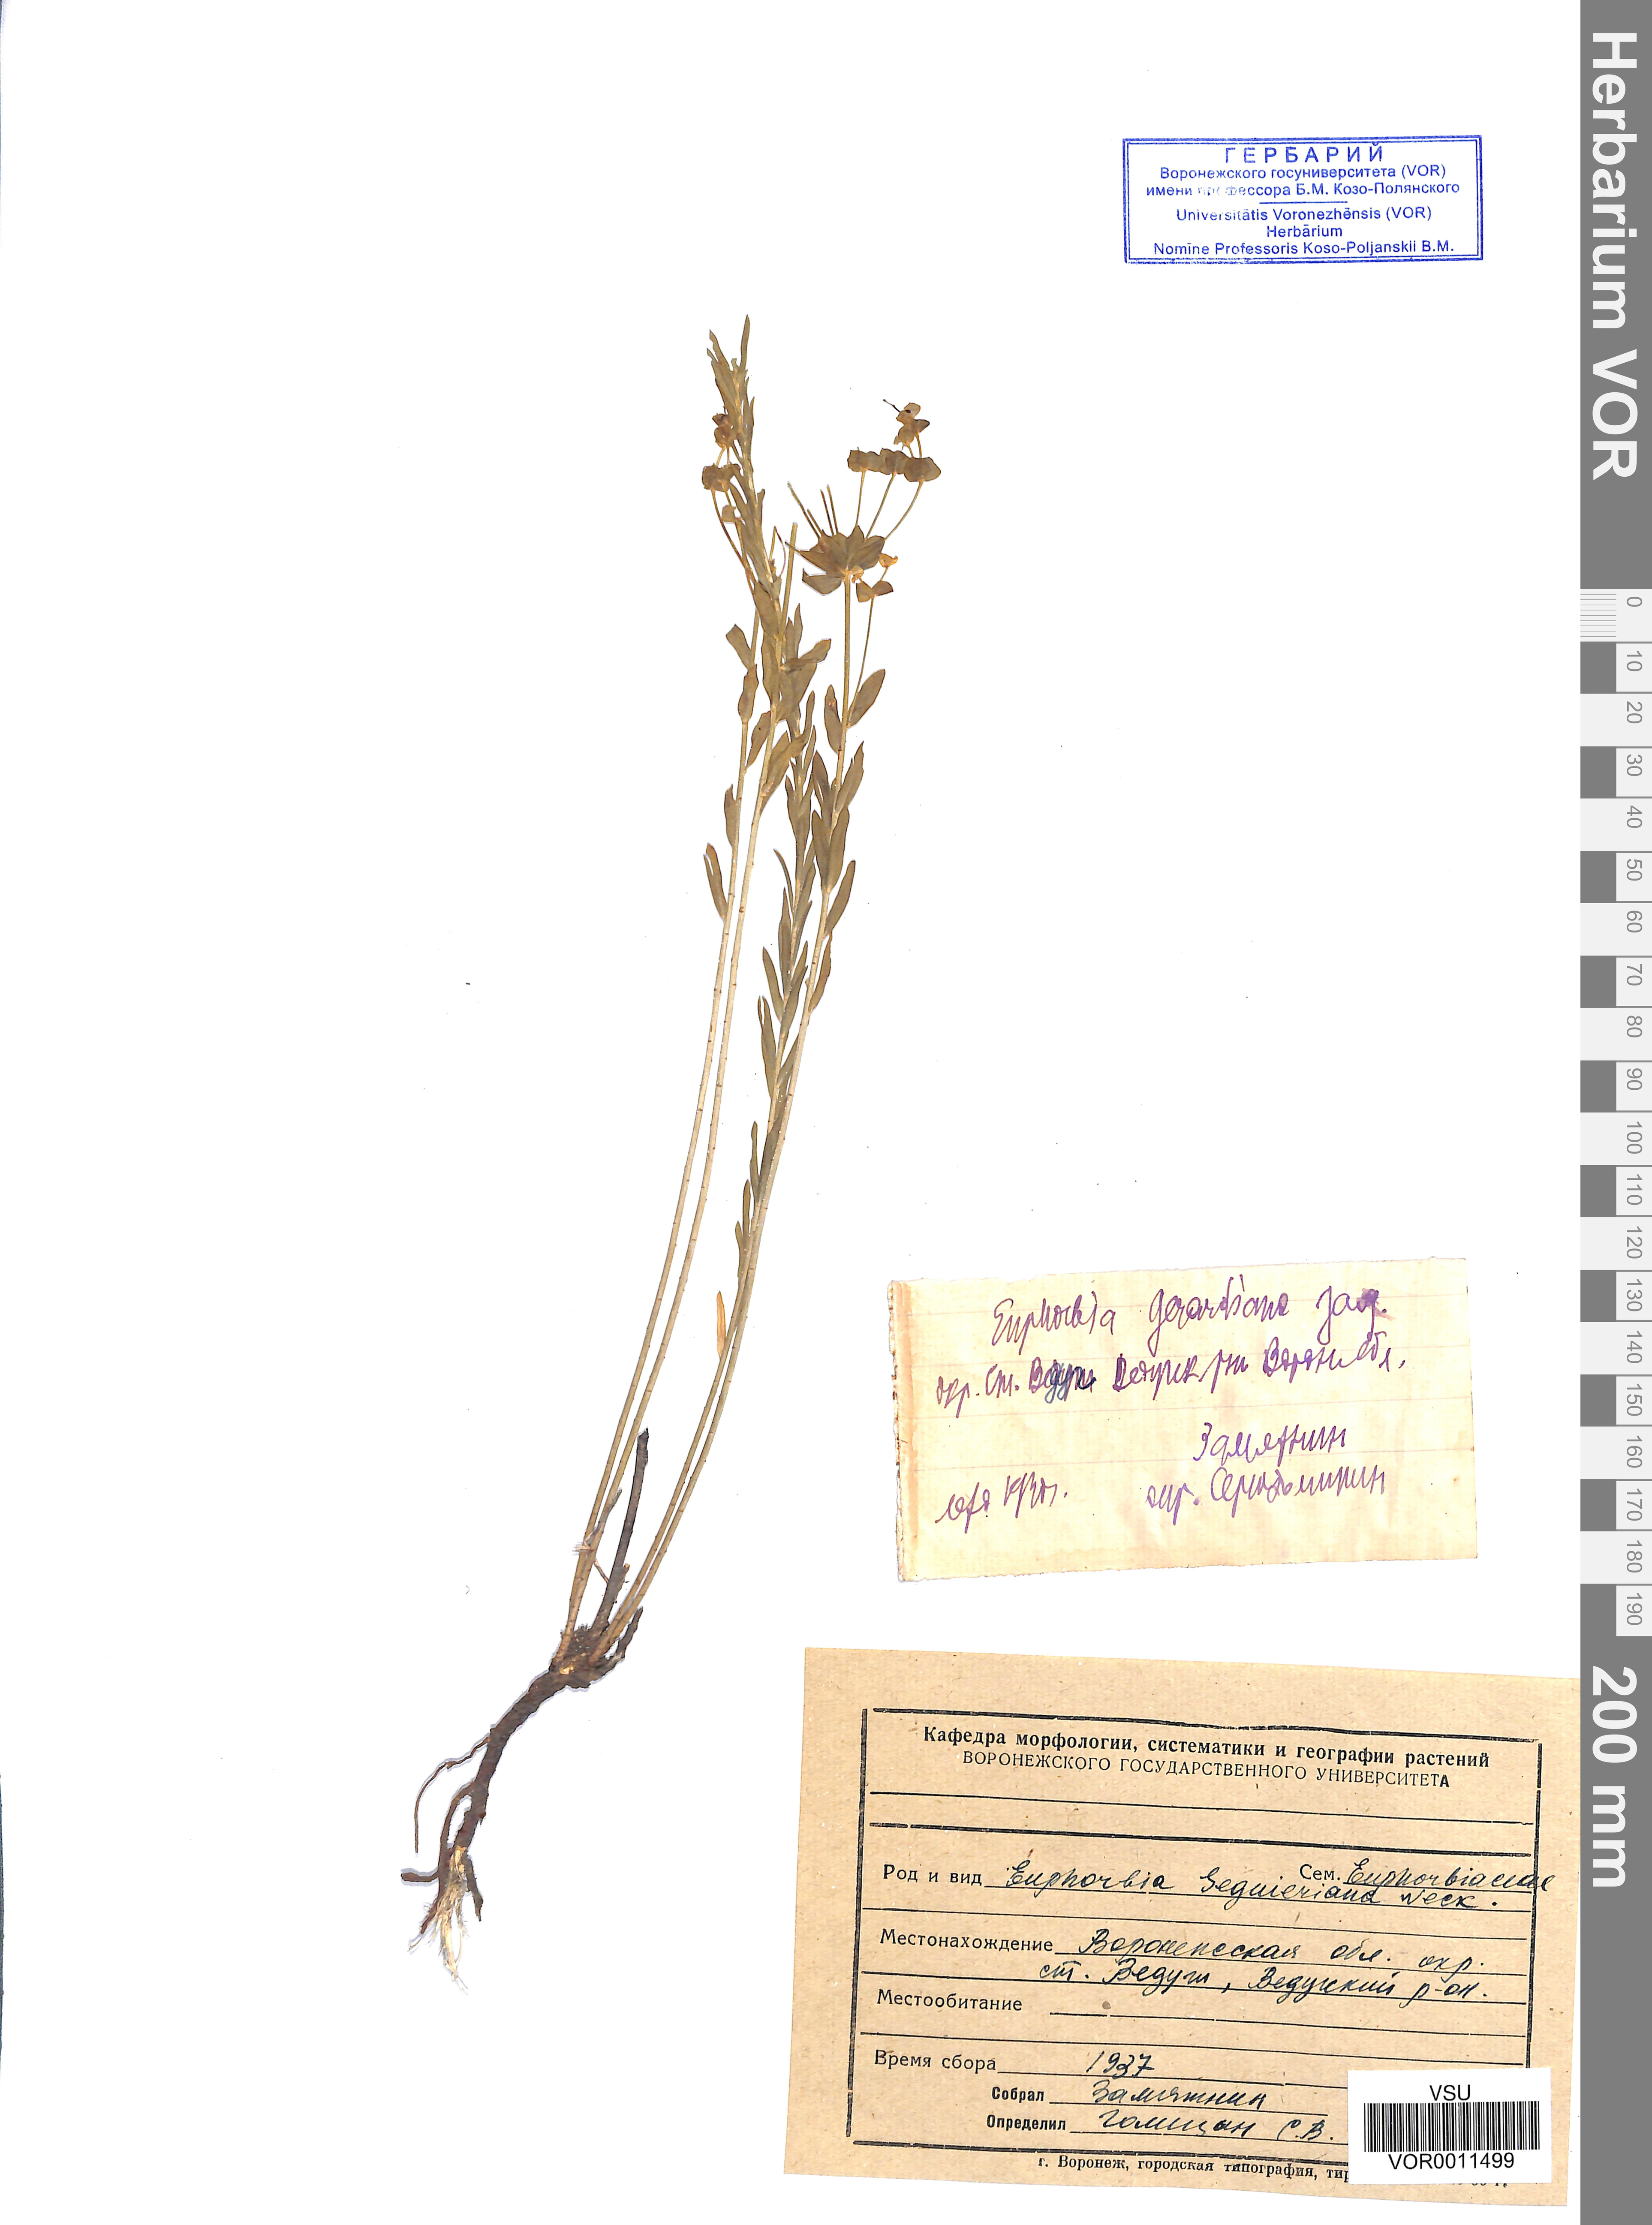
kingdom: Plantae
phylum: Tracheophyta
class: Magnoliopsida
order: Malpighiales
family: Euphorbiaceae
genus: Euphorbia
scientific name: Euphorbia seguieriana
